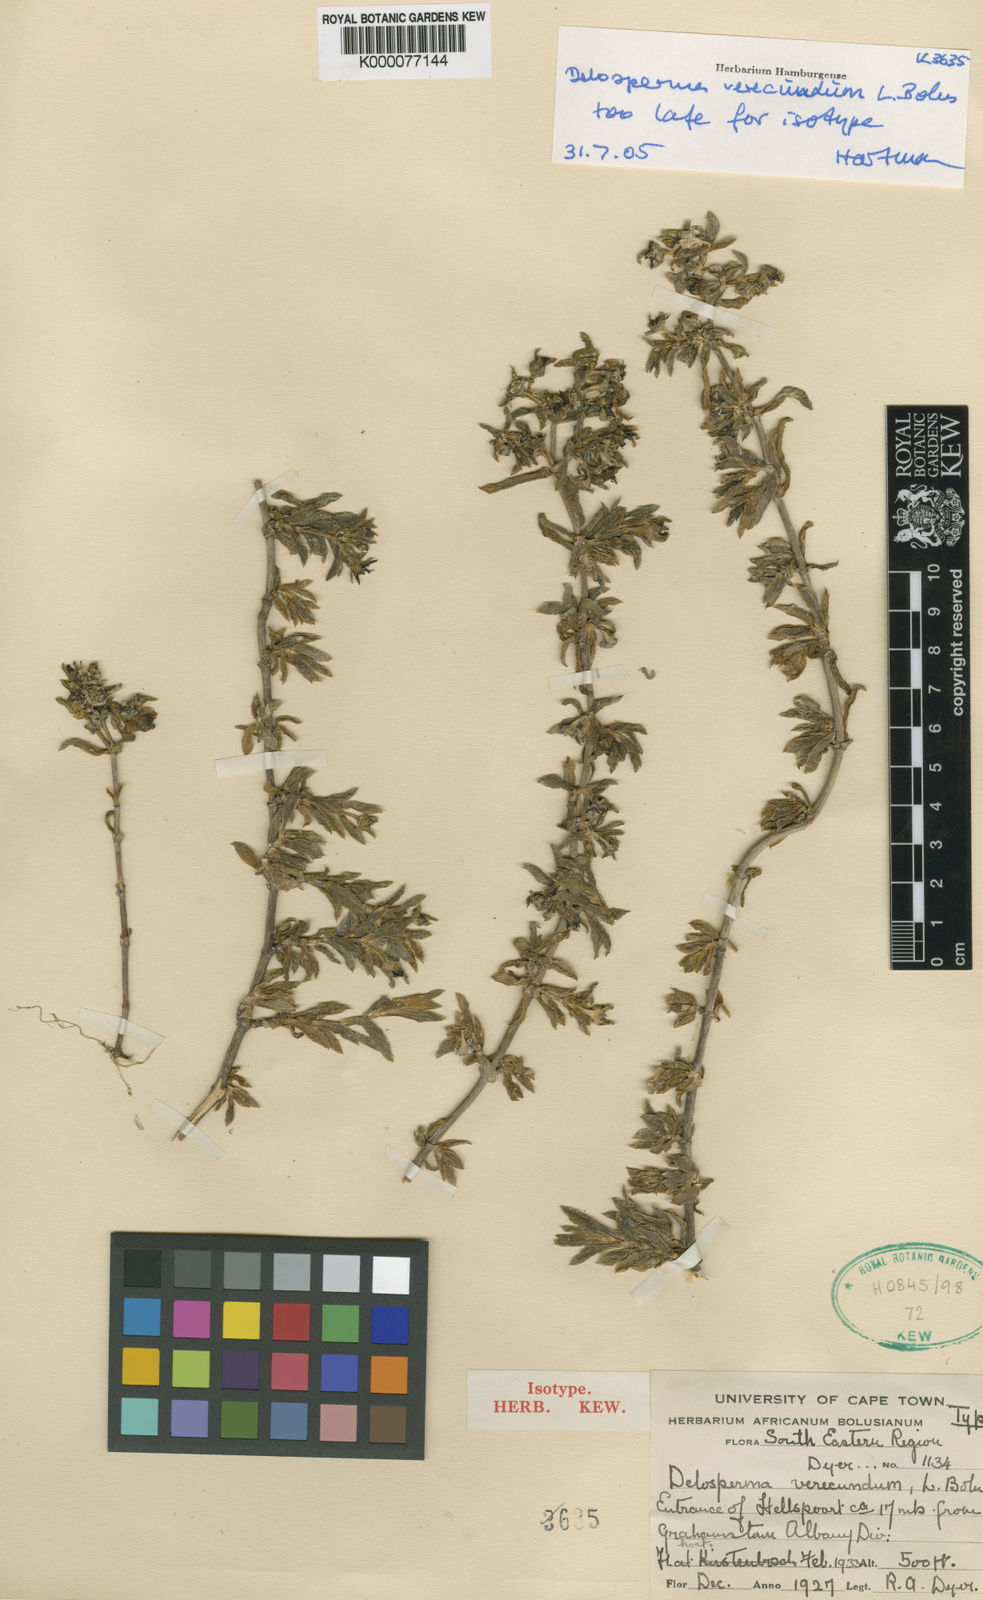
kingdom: Plantae
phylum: Tracheophyta
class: Magnoliopsida
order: Caryophyllales
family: Aizoaceae
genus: Delosperma
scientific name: Delosperma verecundum
